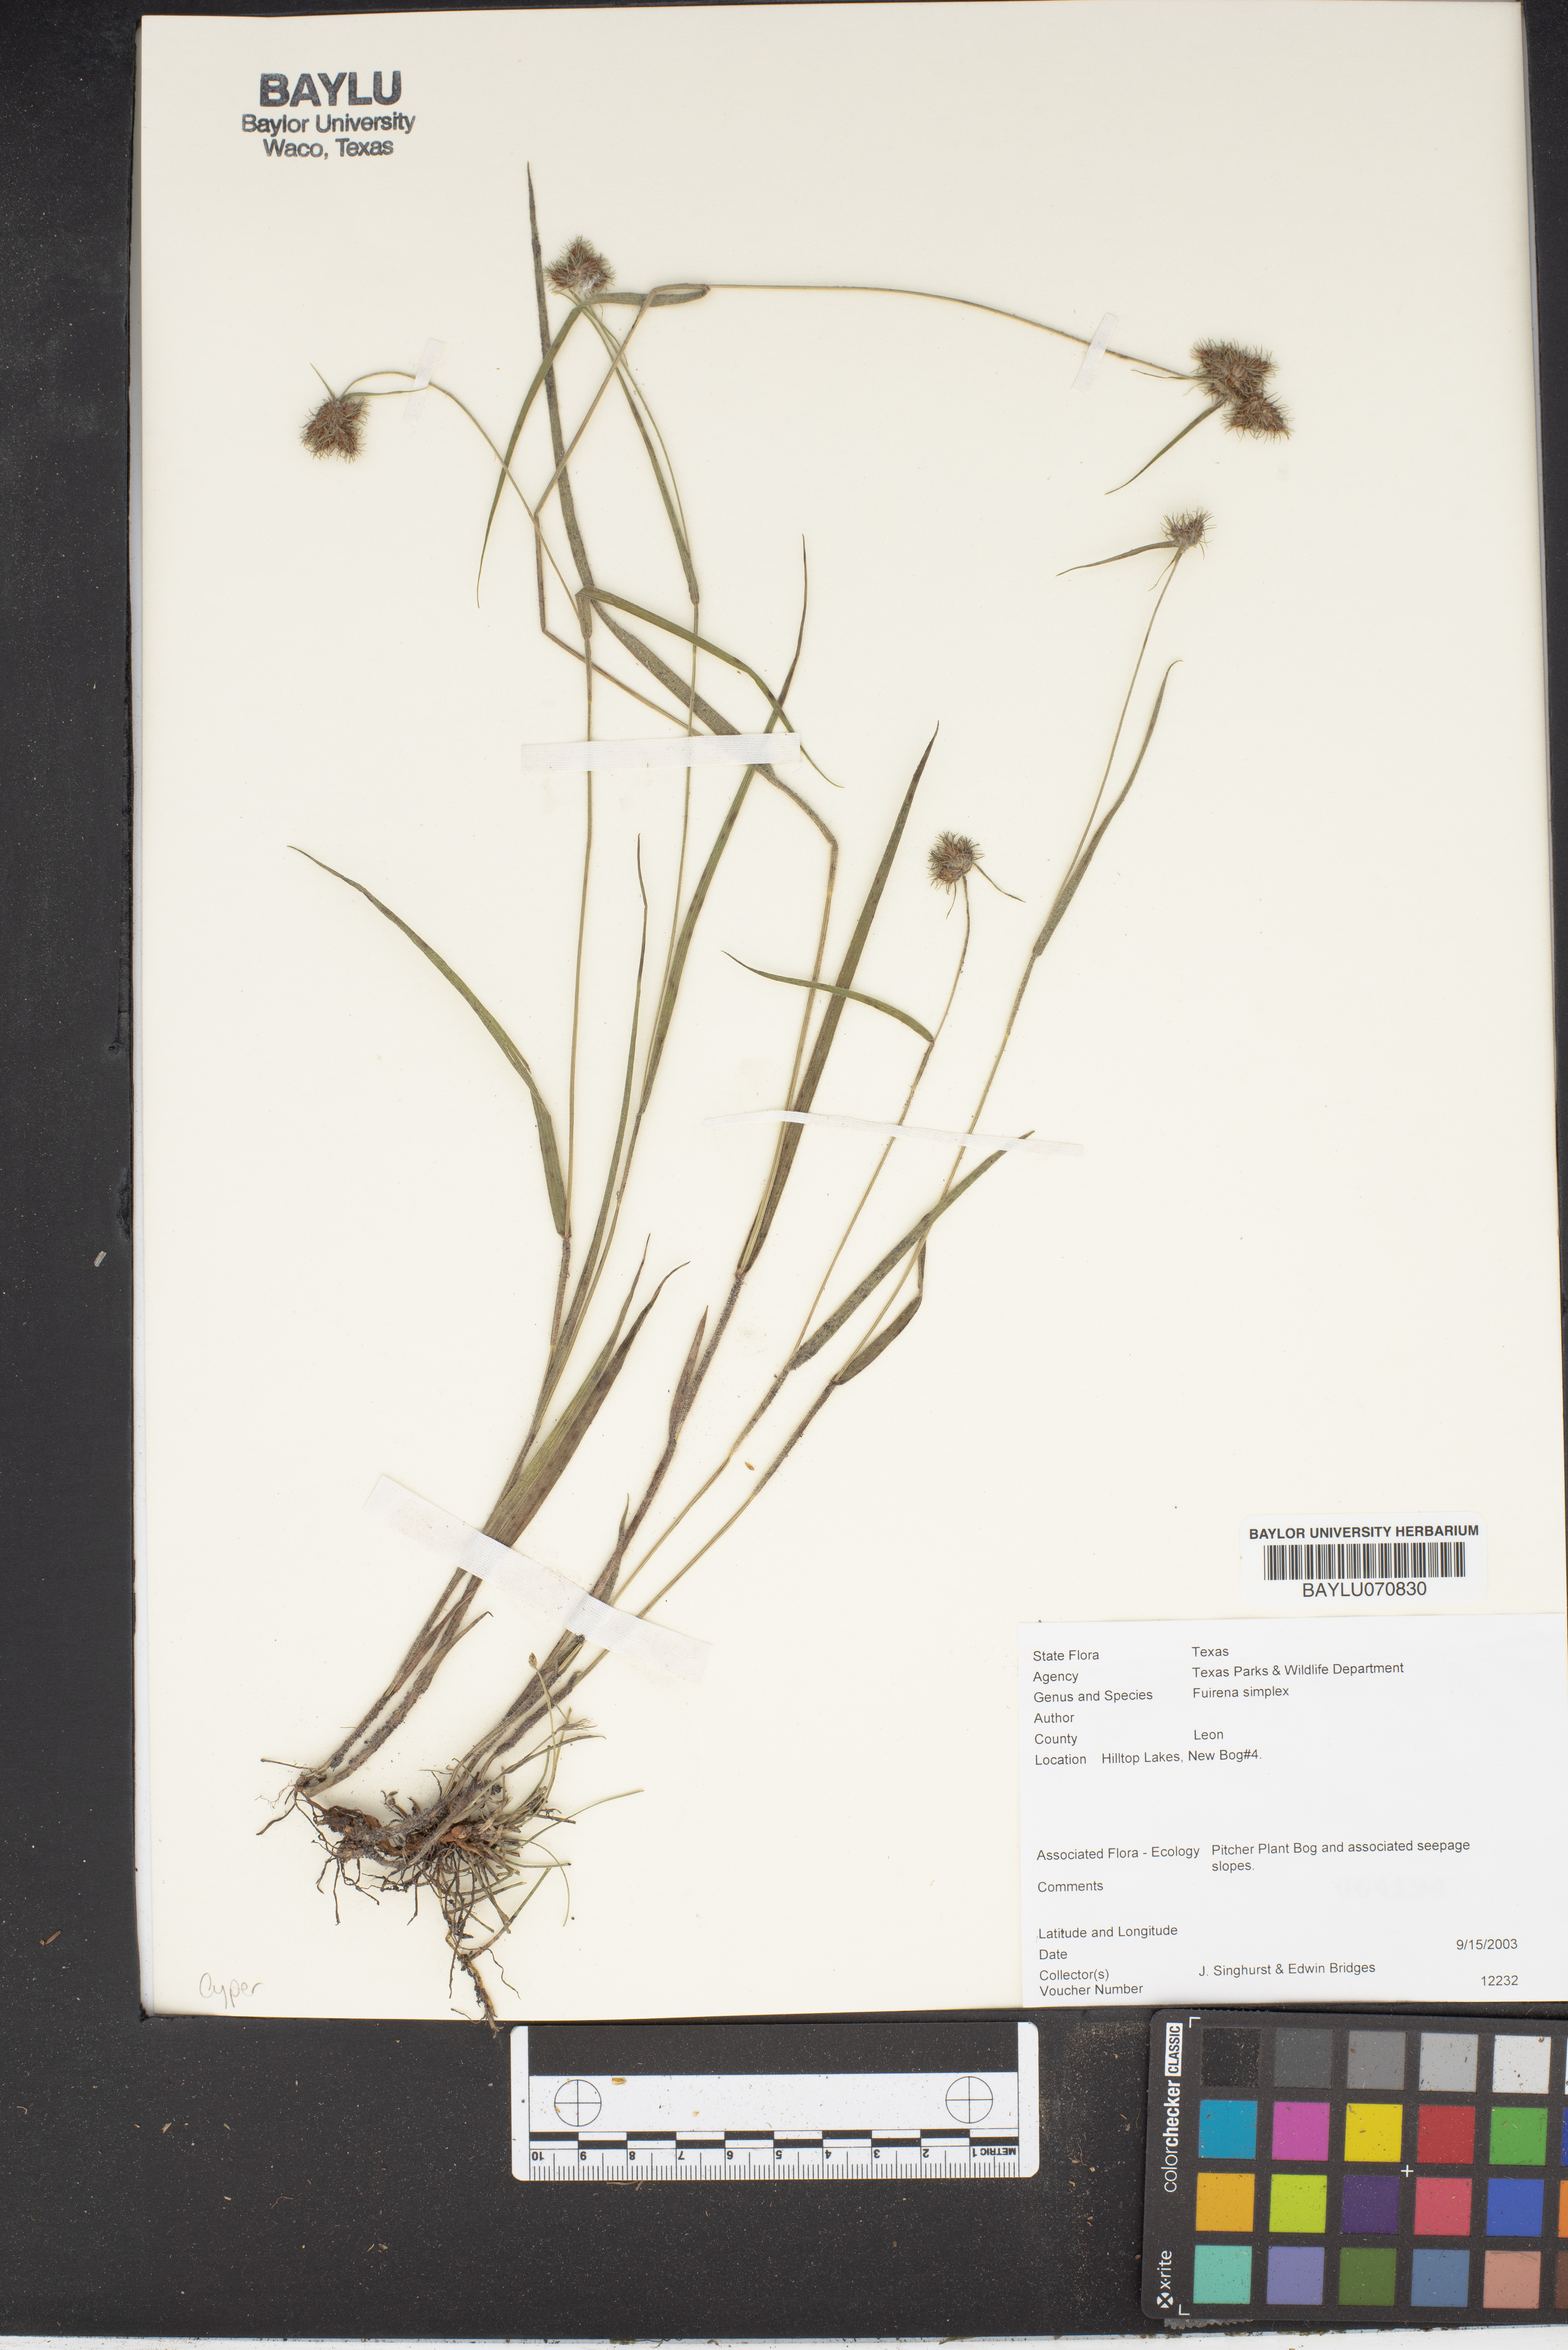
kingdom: Plantae
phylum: Tracheophyta
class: Liliopsida
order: Poales
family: Cyperaceae
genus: Fuirena
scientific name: Fuirena simplex
